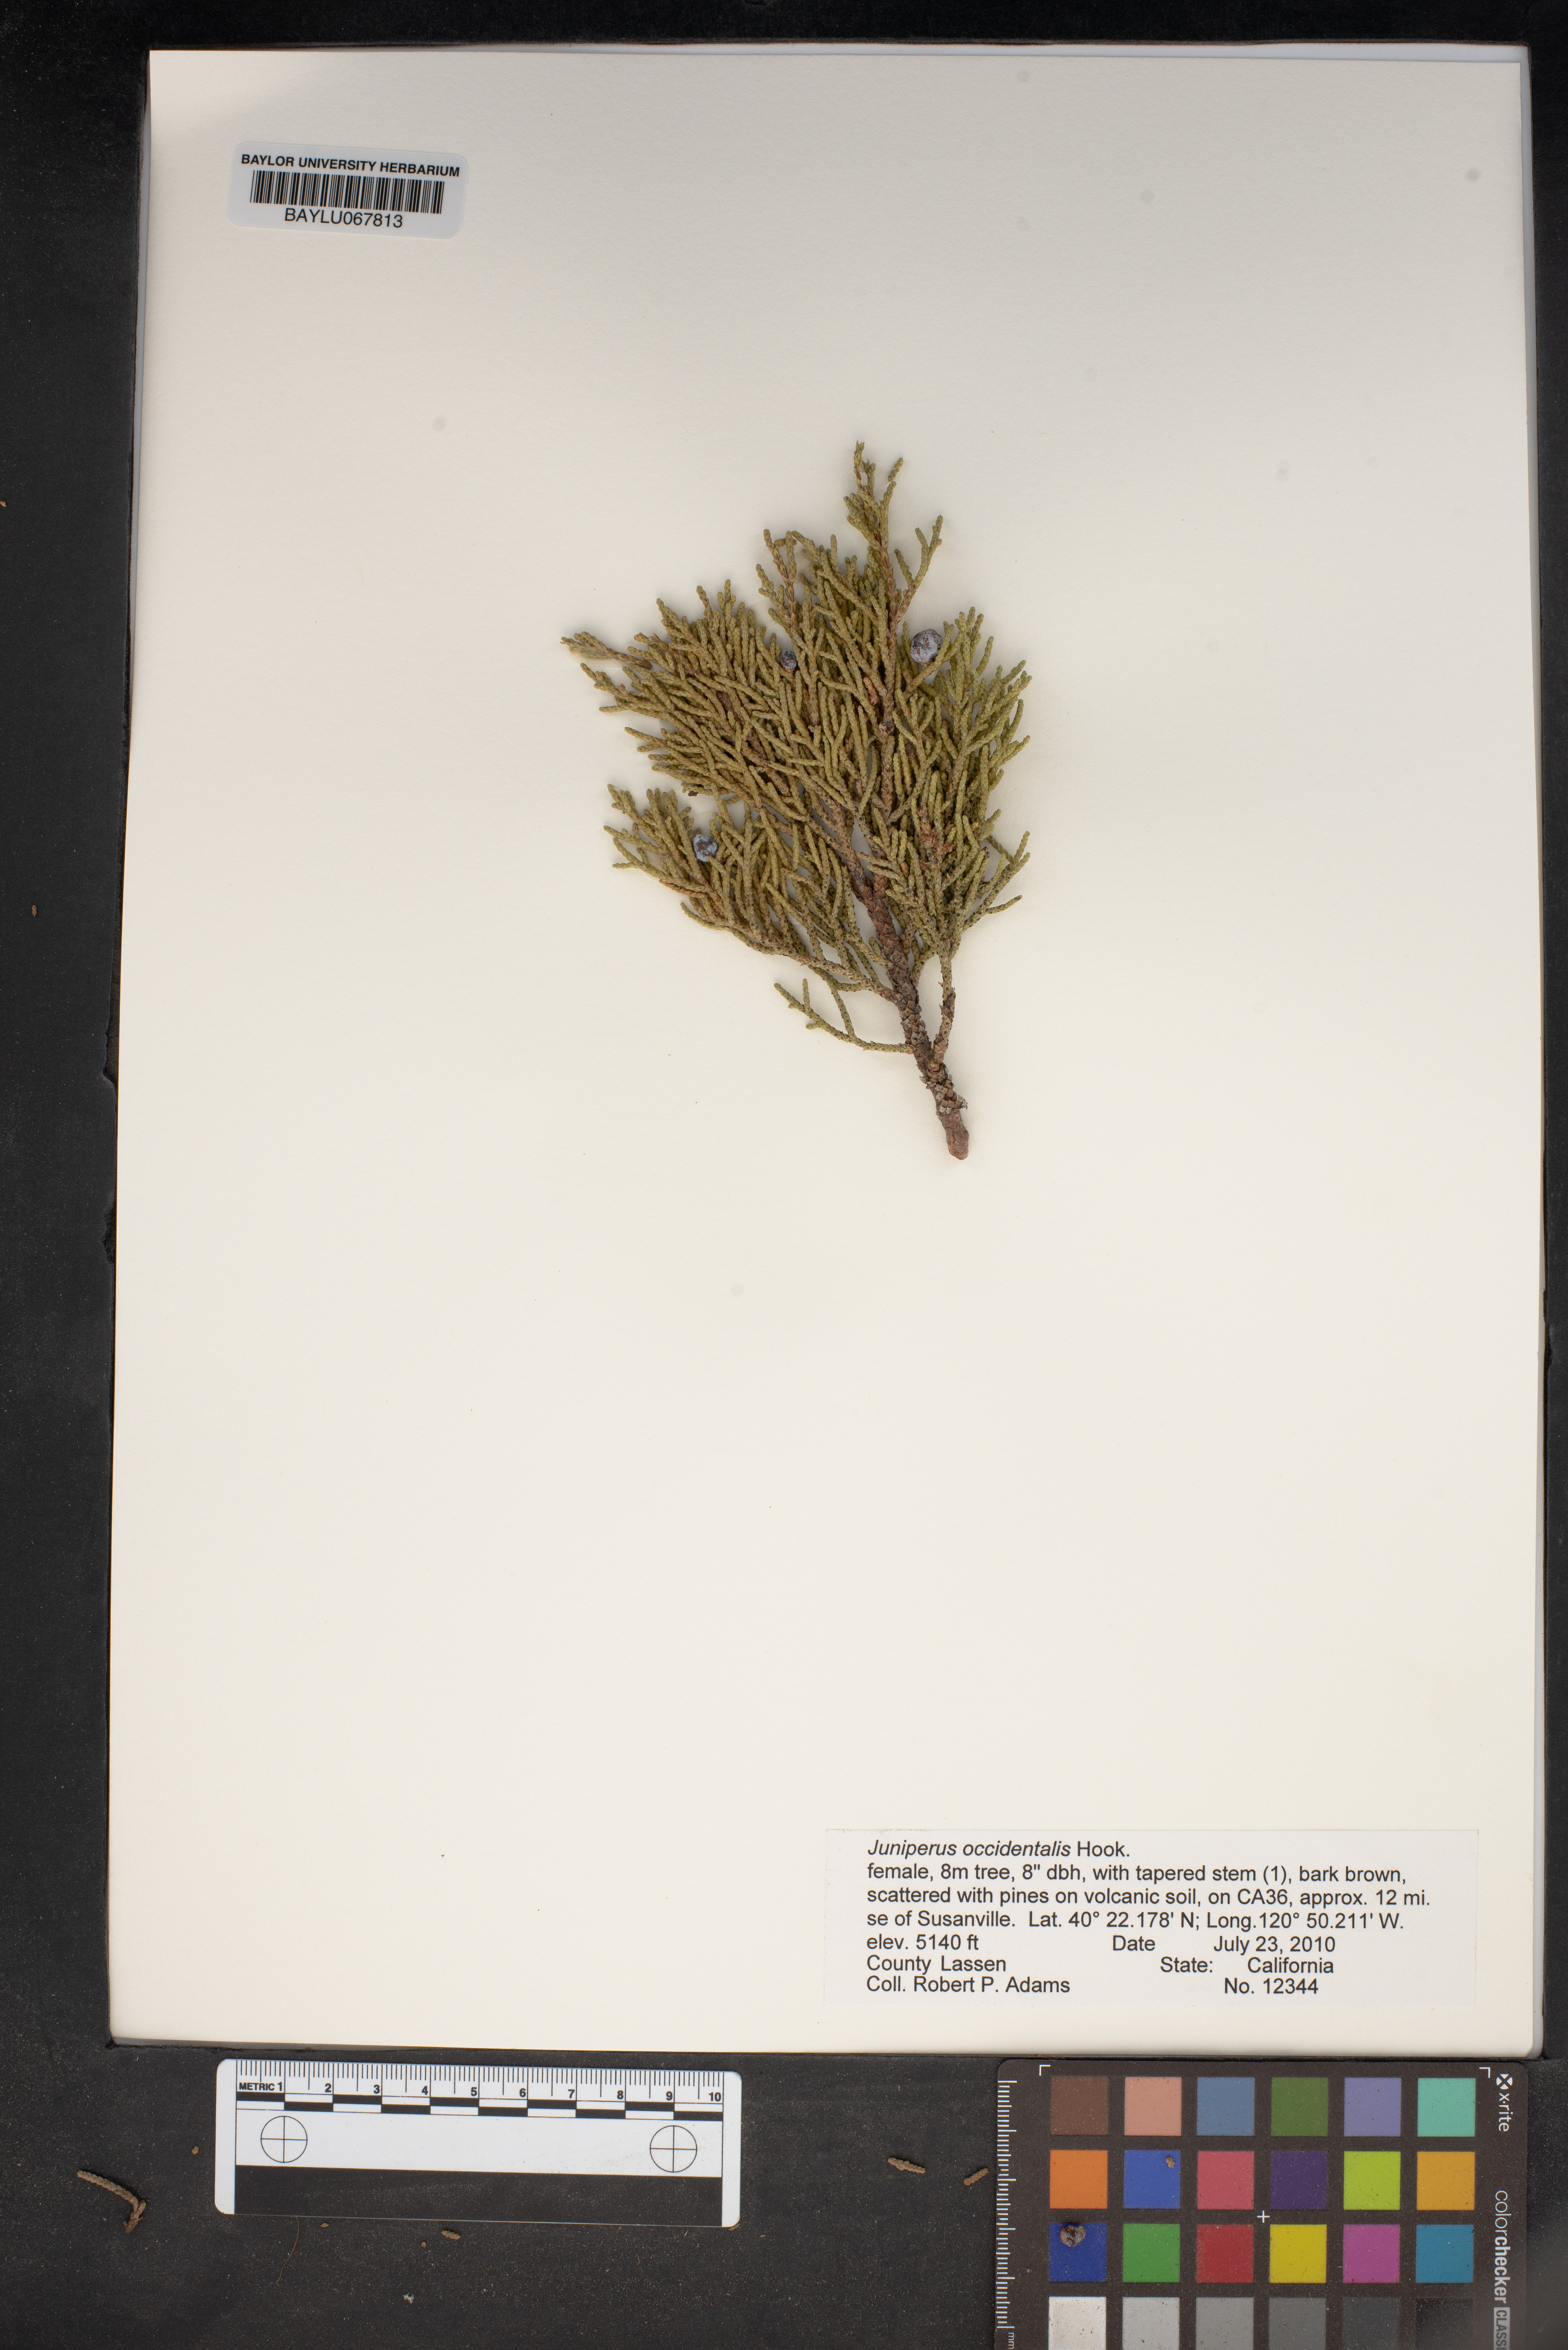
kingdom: Plantae
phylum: Tracheophyta
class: Pinopsida
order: Pinales
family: Cupressaceae
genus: Juniperus
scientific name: Juniperus occidentalis
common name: Western juniper
